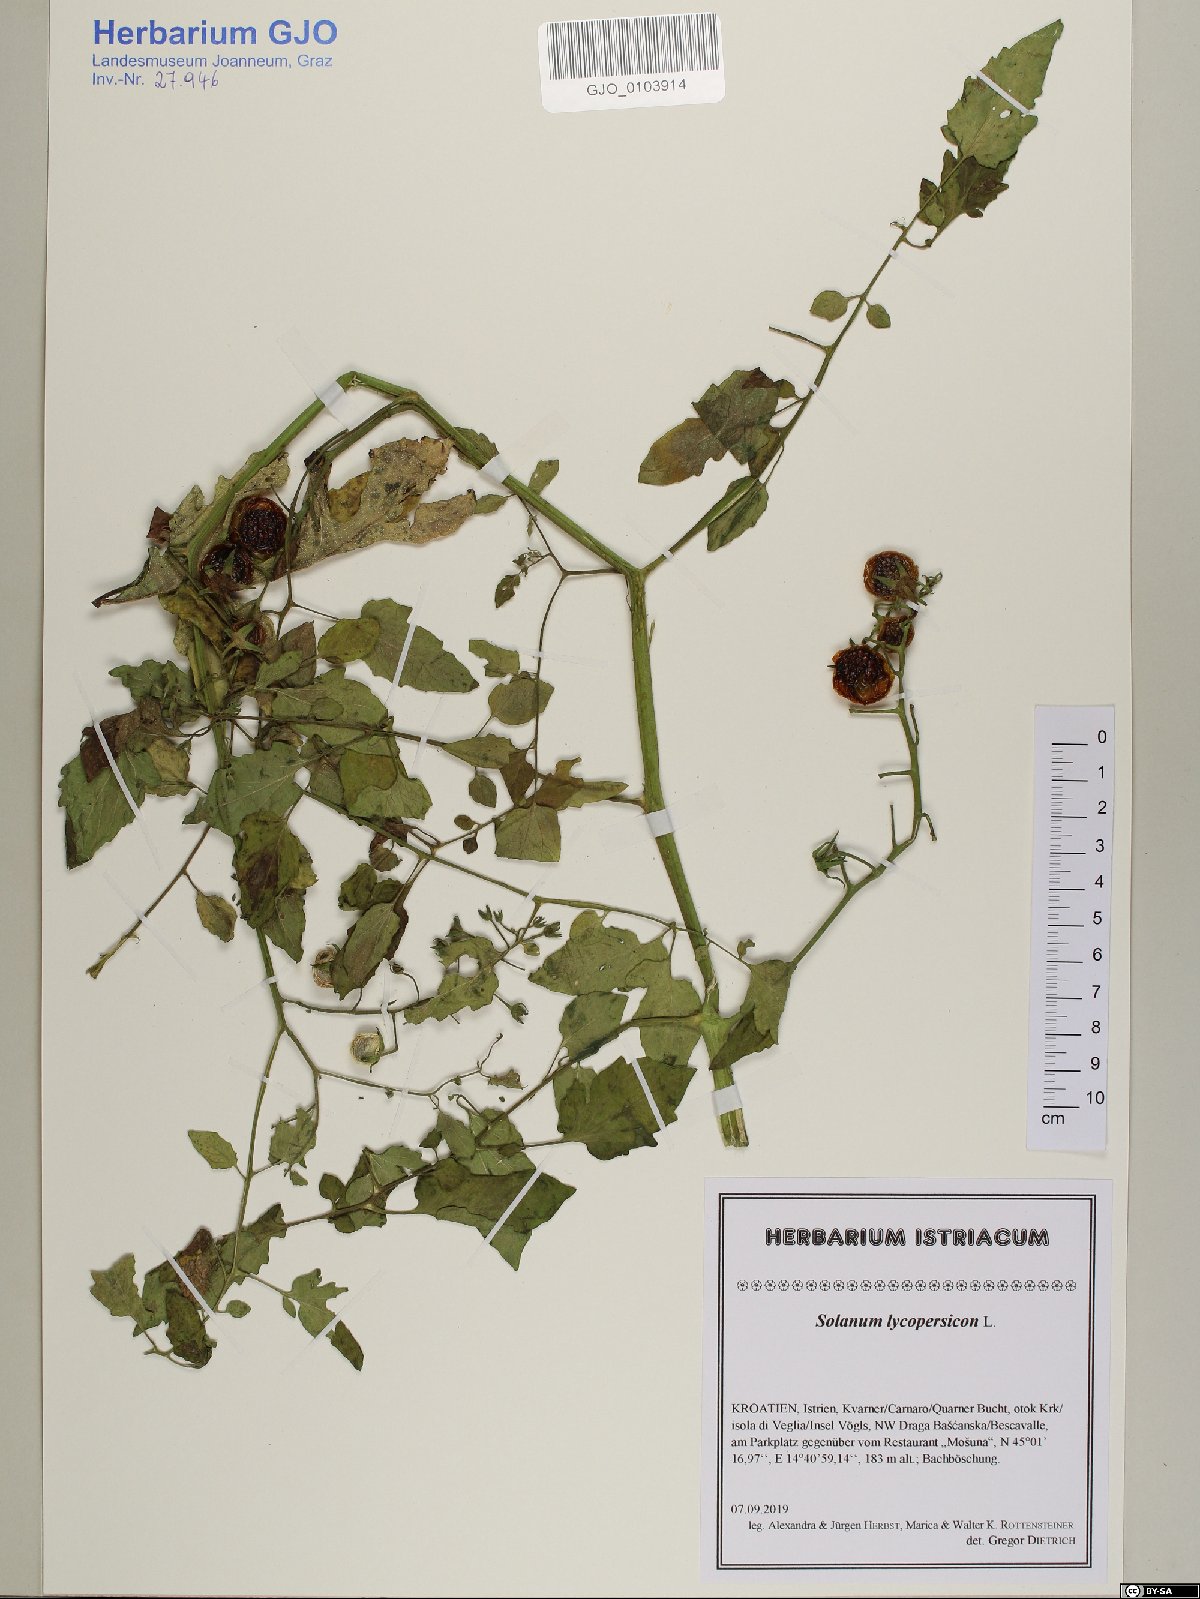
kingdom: Plantae
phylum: Tracheophyta
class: Magnoliopsida
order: Solanales
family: Solanaceae
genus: Solanum
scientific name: Solanum lycopersicum
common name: Garden tomato
